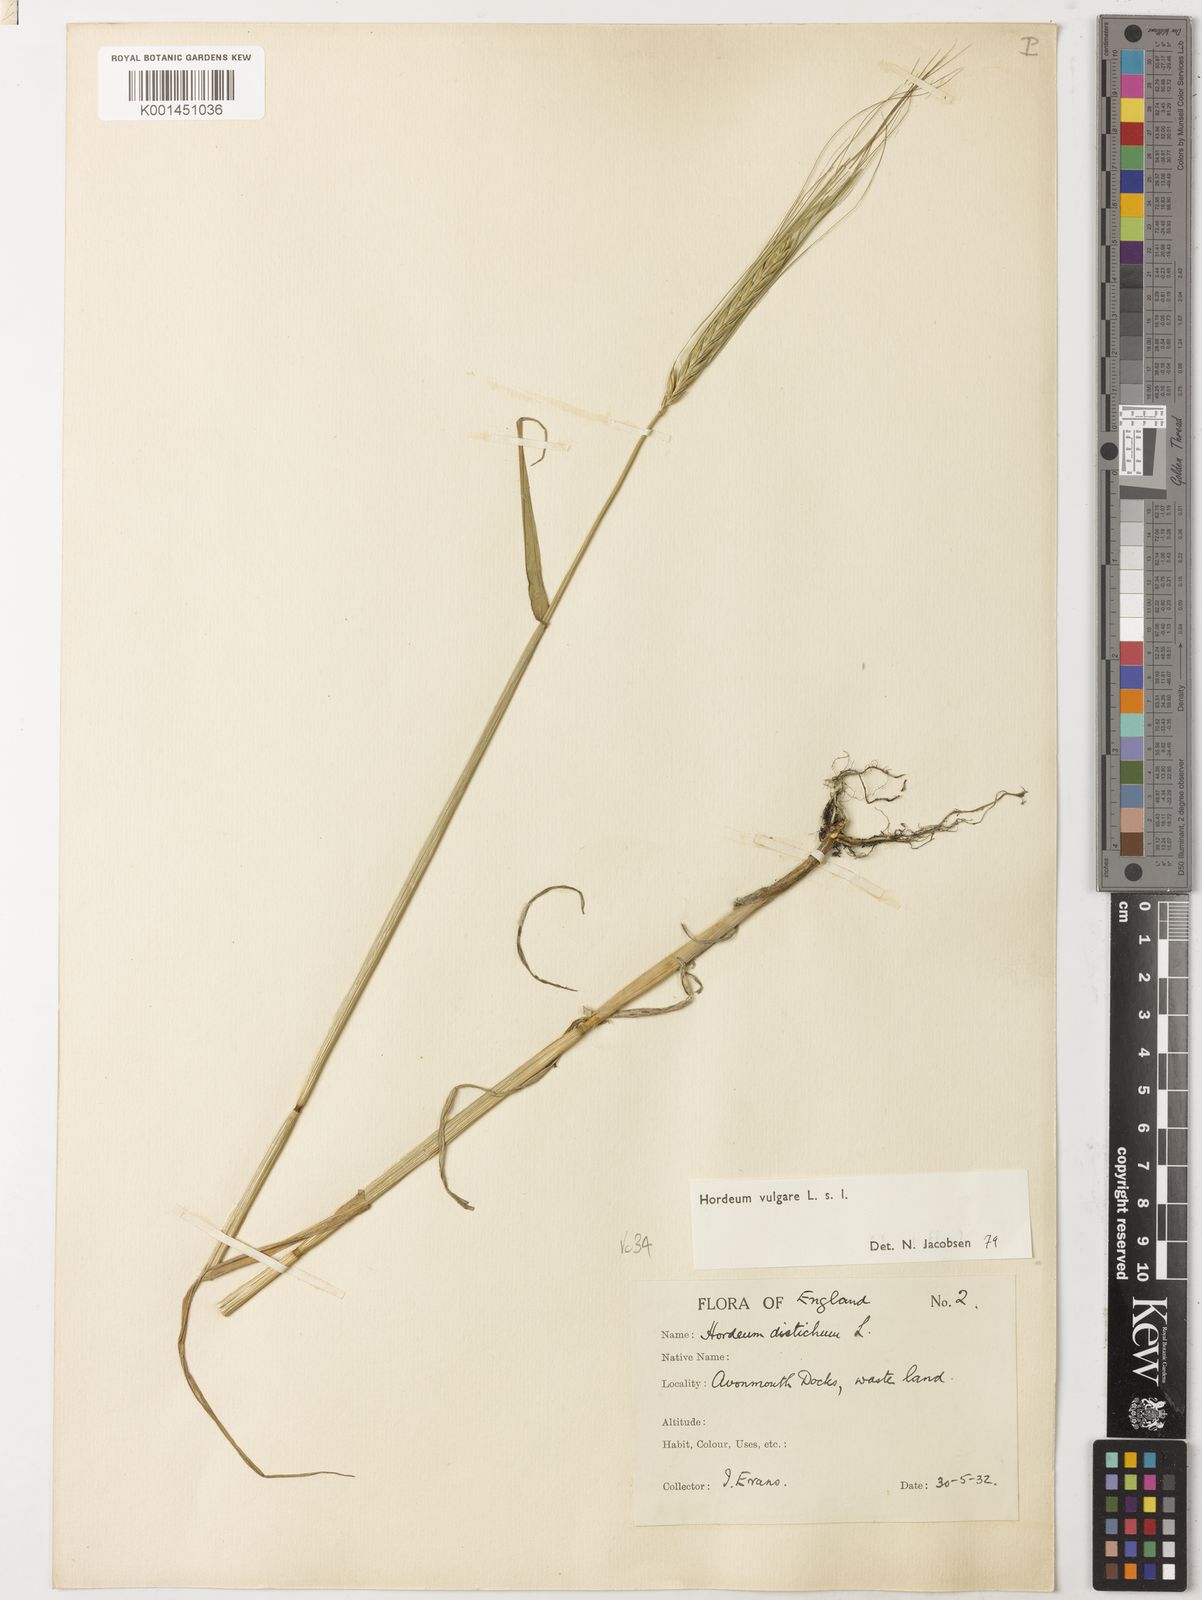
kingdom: Plantae
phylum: Tracheophyta
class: Liliopsida
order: Poales
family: Poaceae
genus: Hordeum
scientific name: Hordeum vulgare
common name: Common barley
